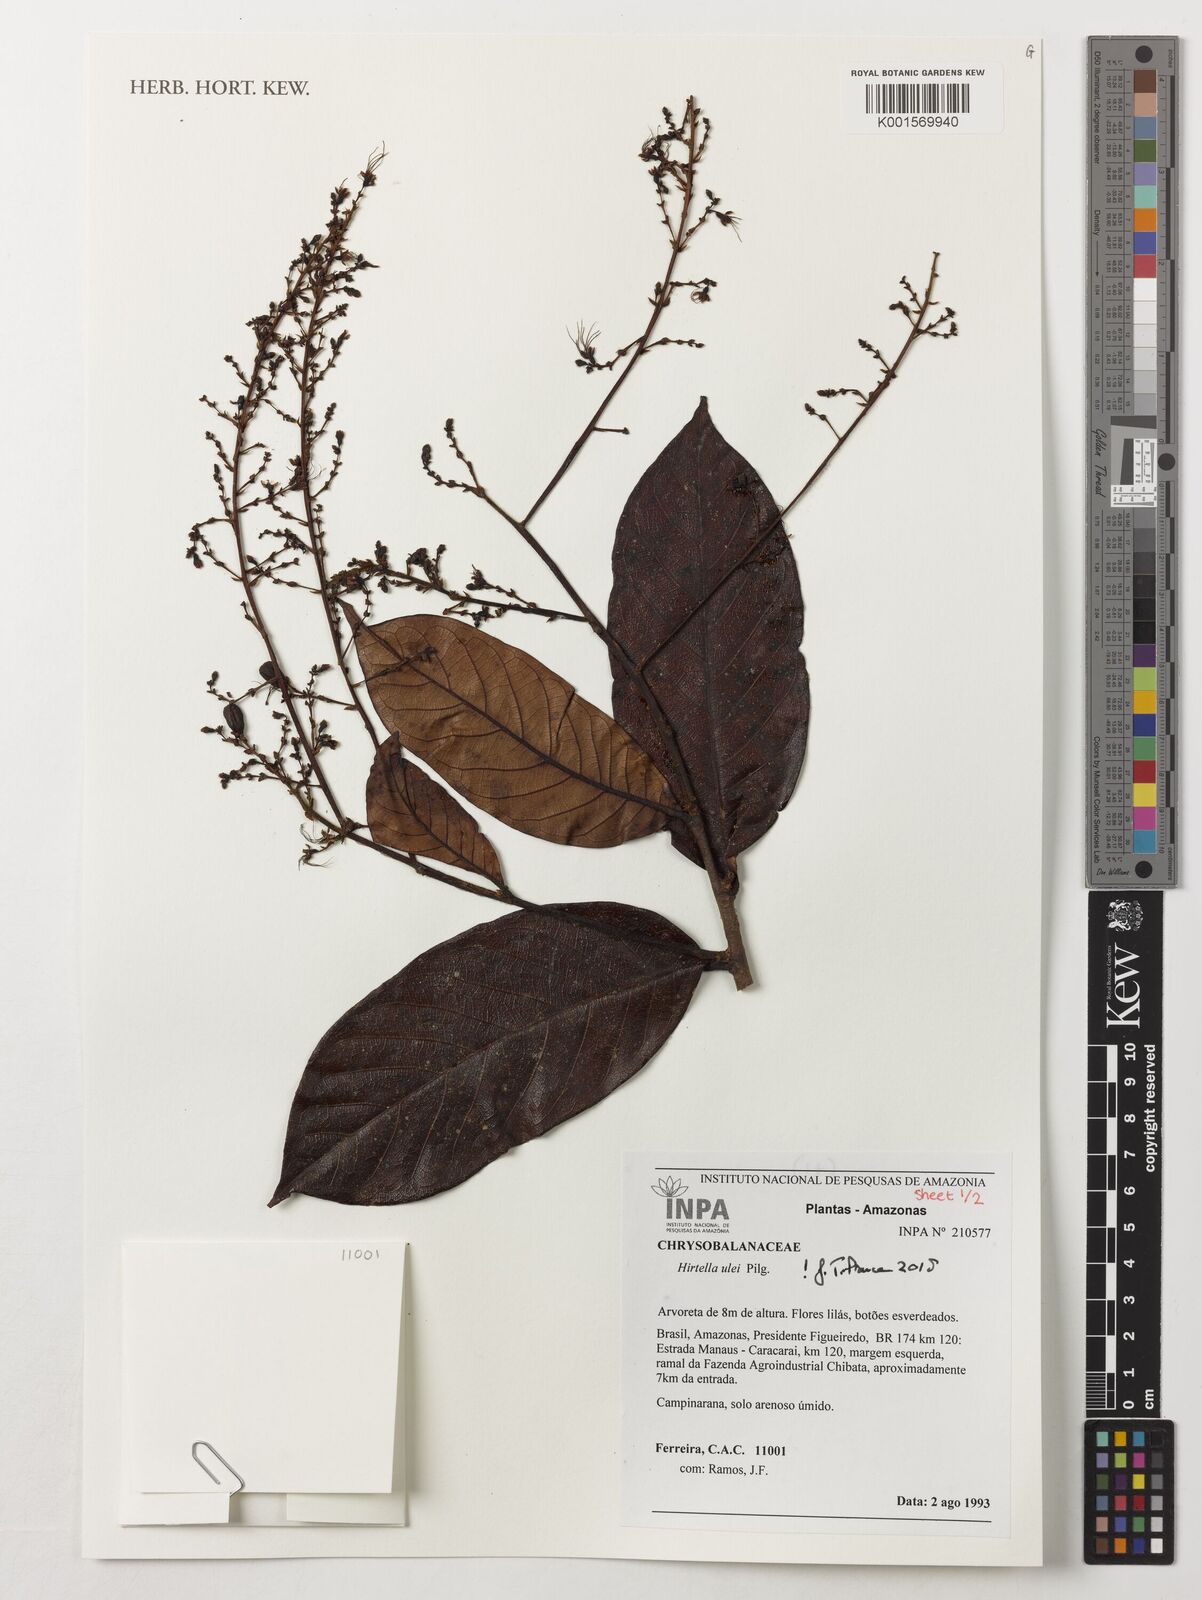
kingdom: Plantae
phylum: Tracheophyta
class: Magnoliopsida
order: Malpighiales
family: Chrysobalanaceae
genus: Hirtella
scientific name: Hirtella ulei
